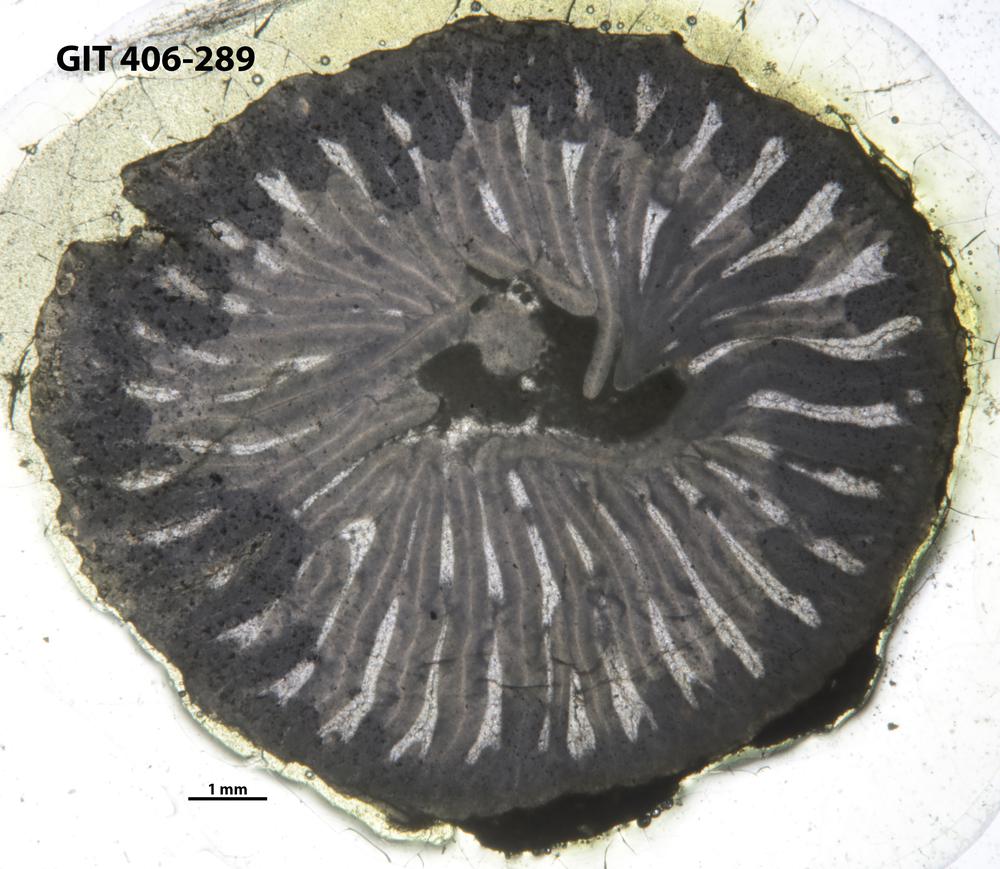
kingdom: Animalia
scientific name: Animalia
